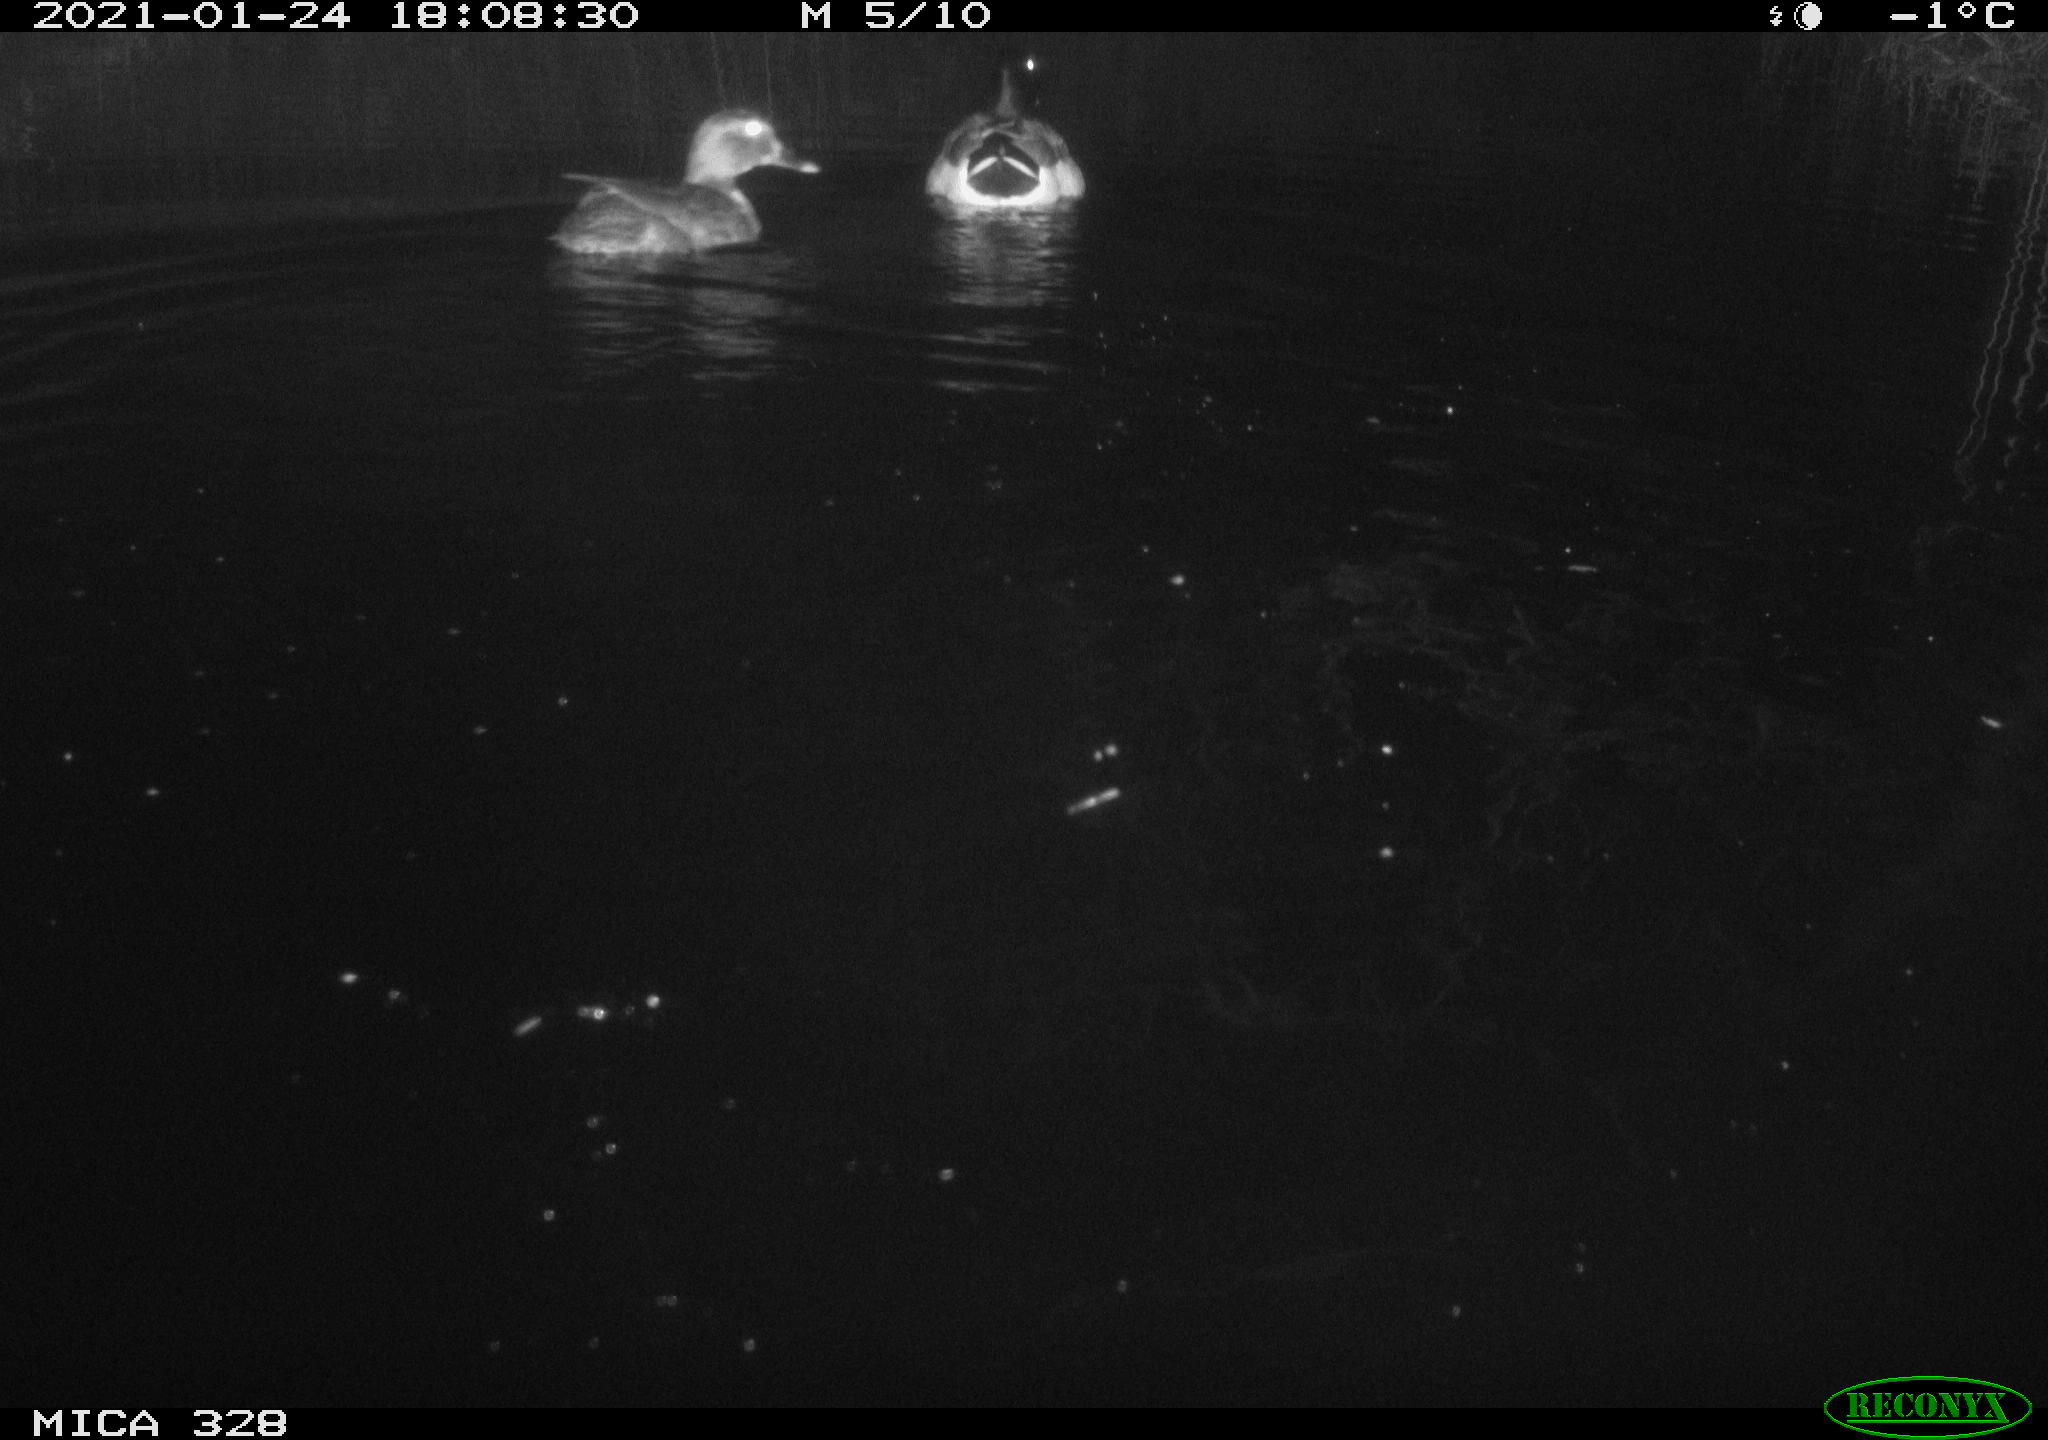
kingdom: Animalia
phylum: Chordata
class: Aves
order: Anseriformes
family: Anatidae
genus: Anas
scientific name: Anas
